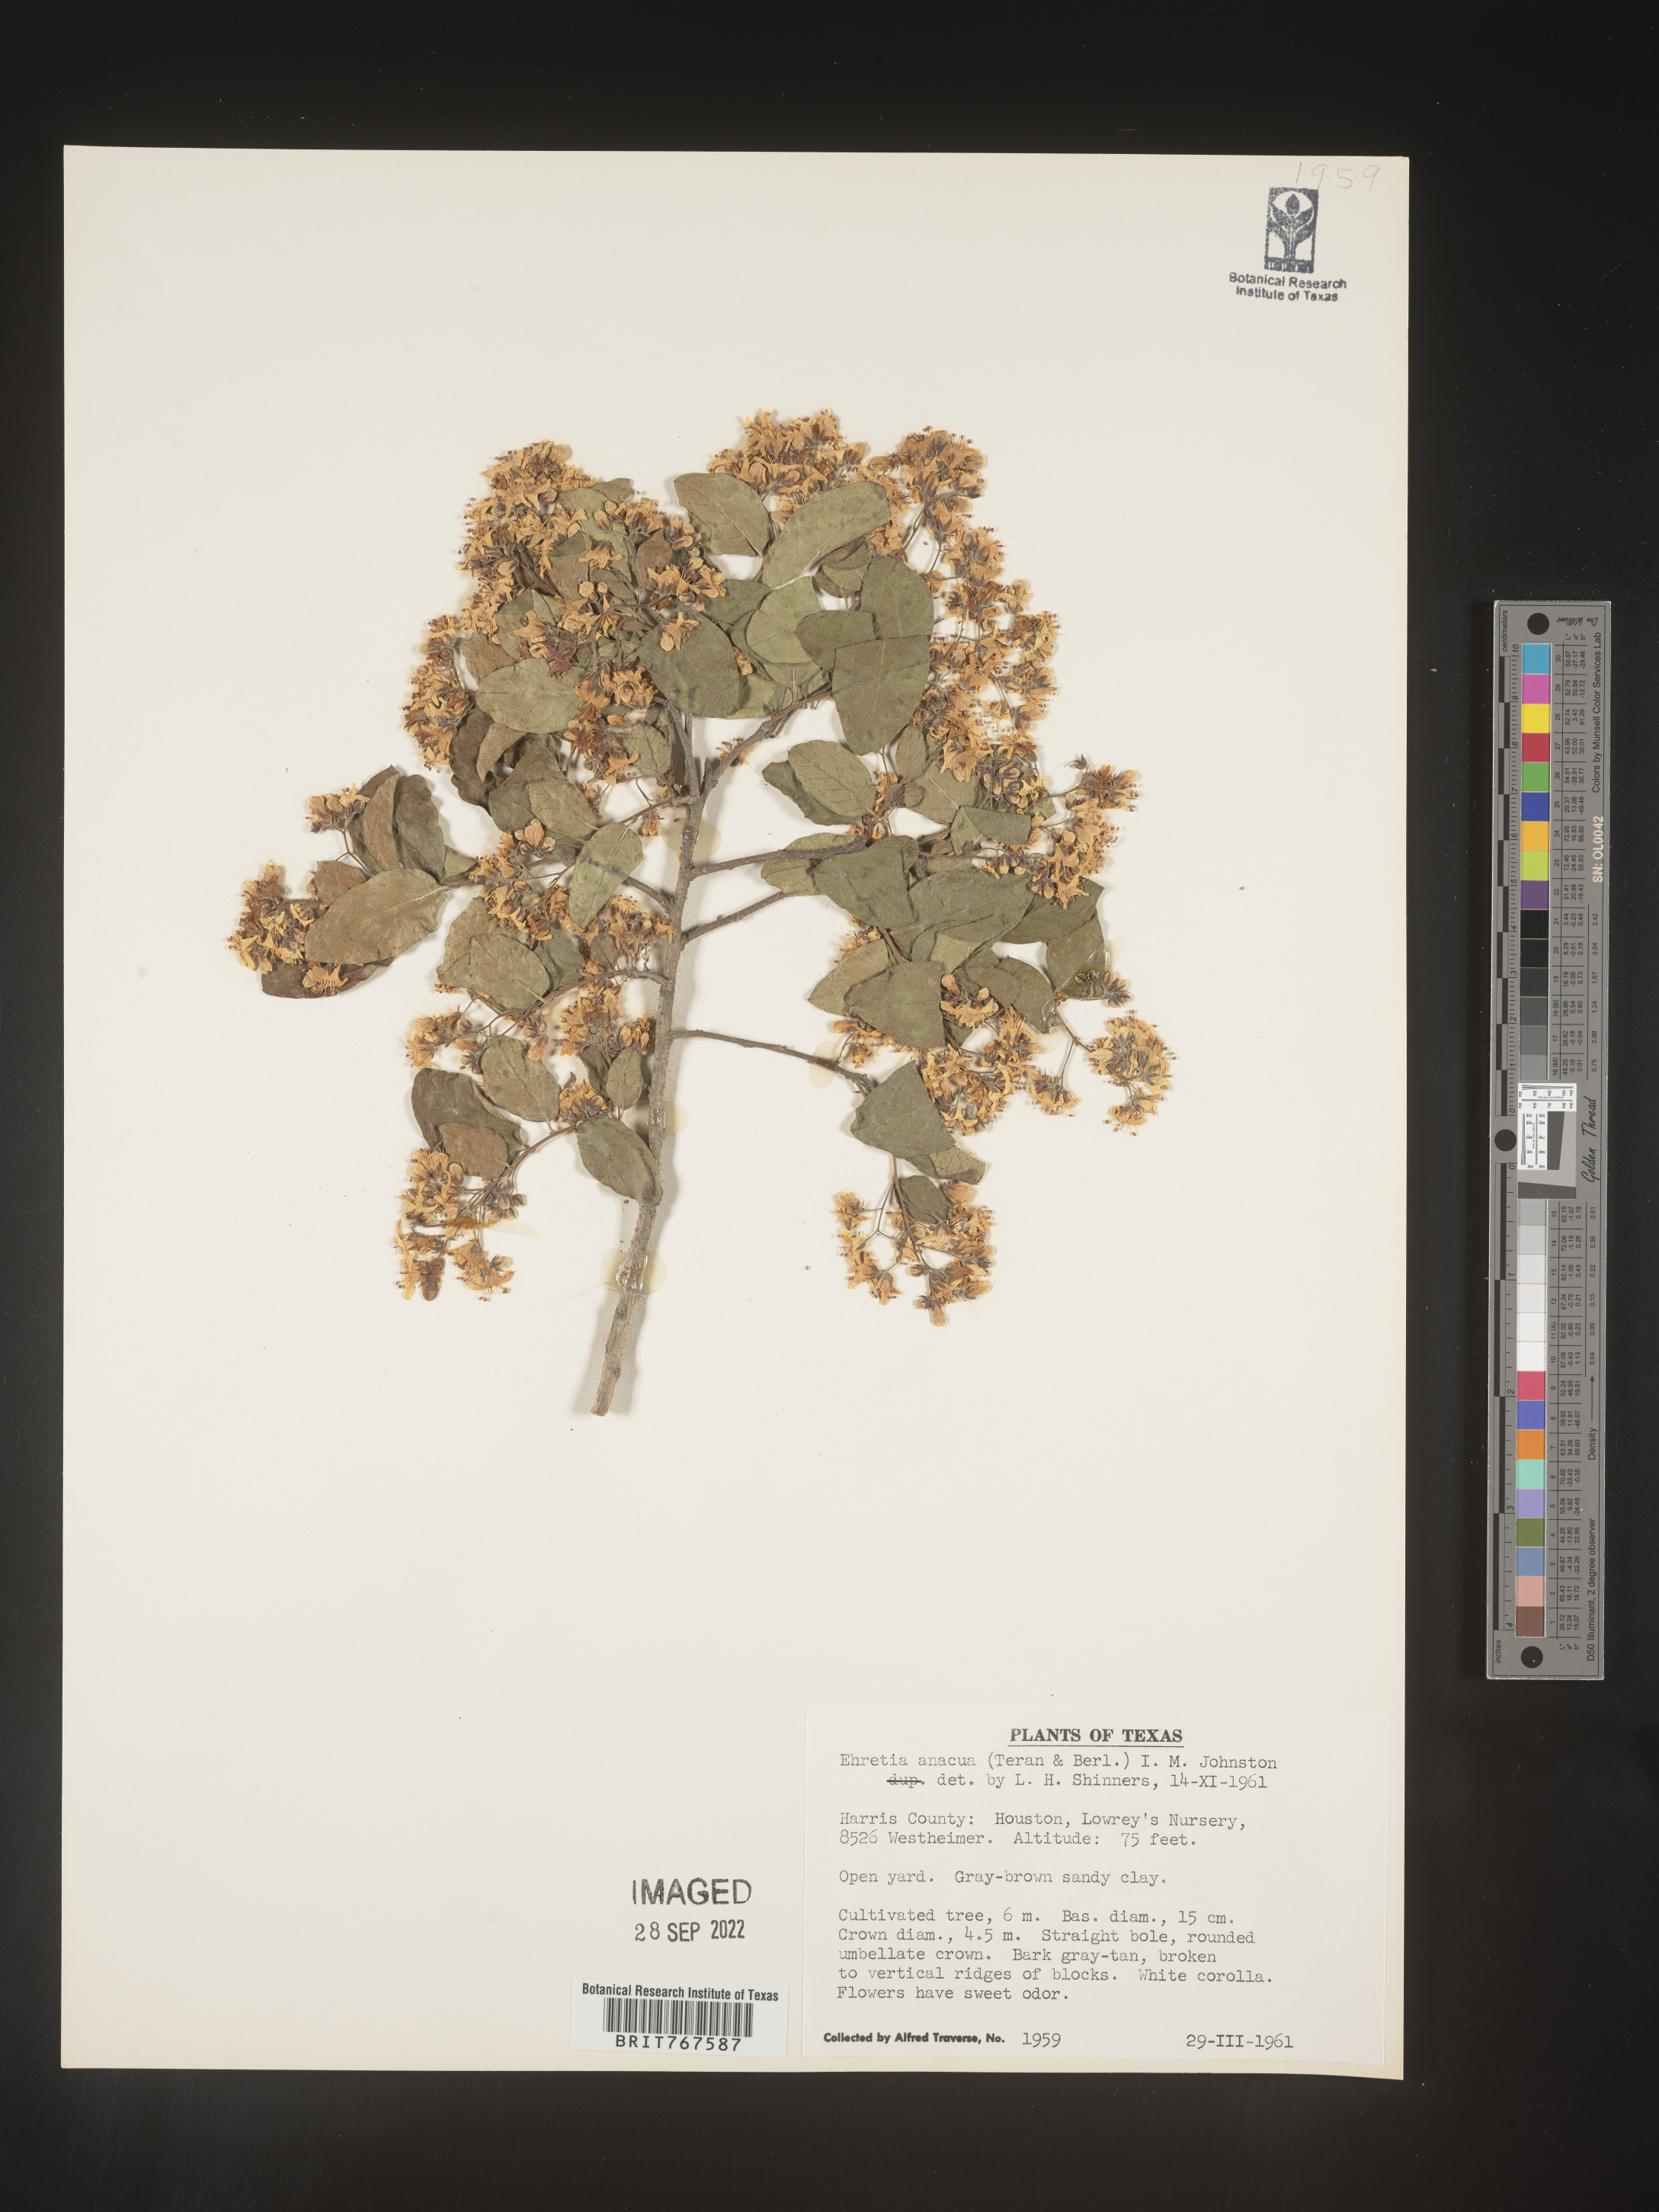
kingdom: Plantae
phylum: Tracheophyta
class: Magnoliopsida
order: Boraginales
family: Ehretiaceae
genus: Ehretia
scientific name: Ehretia
